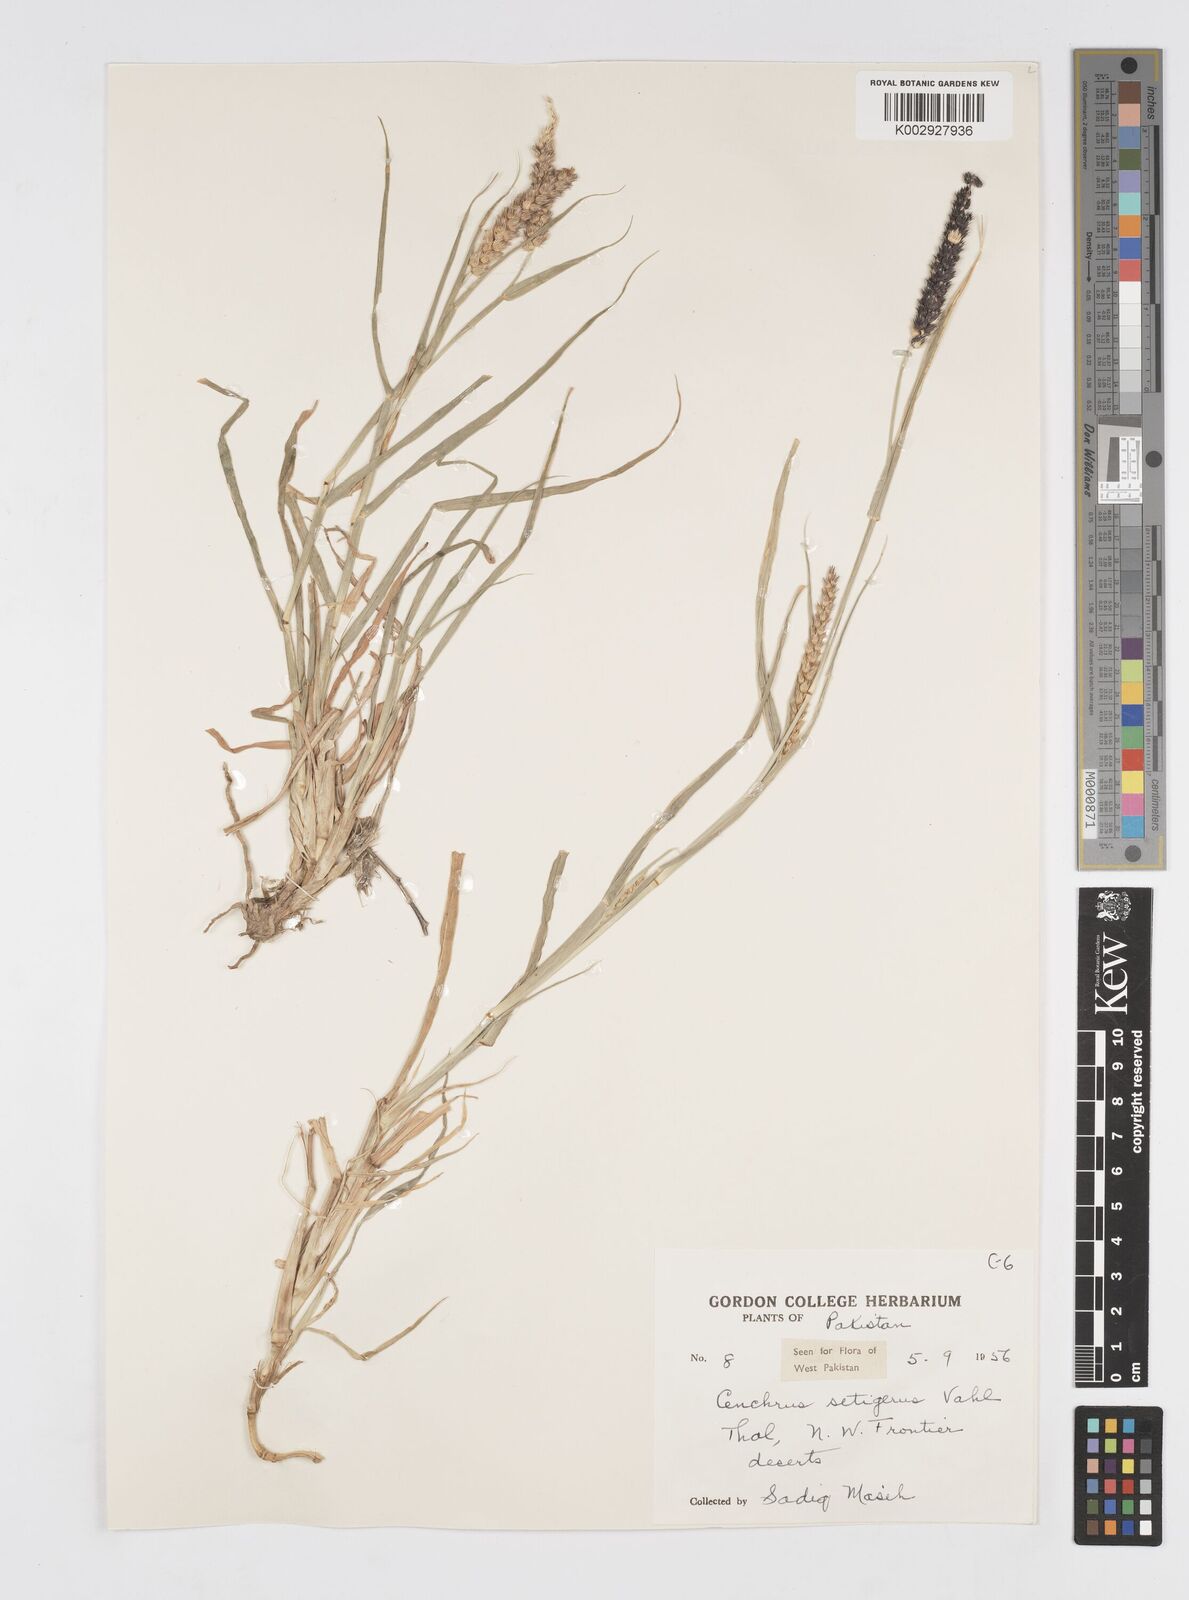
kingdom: Plantae
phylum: Tracheophyta
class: Liliopsida
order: Poales
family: Poaceae
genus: Cenchrus
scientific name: Cenchrus setigerus
